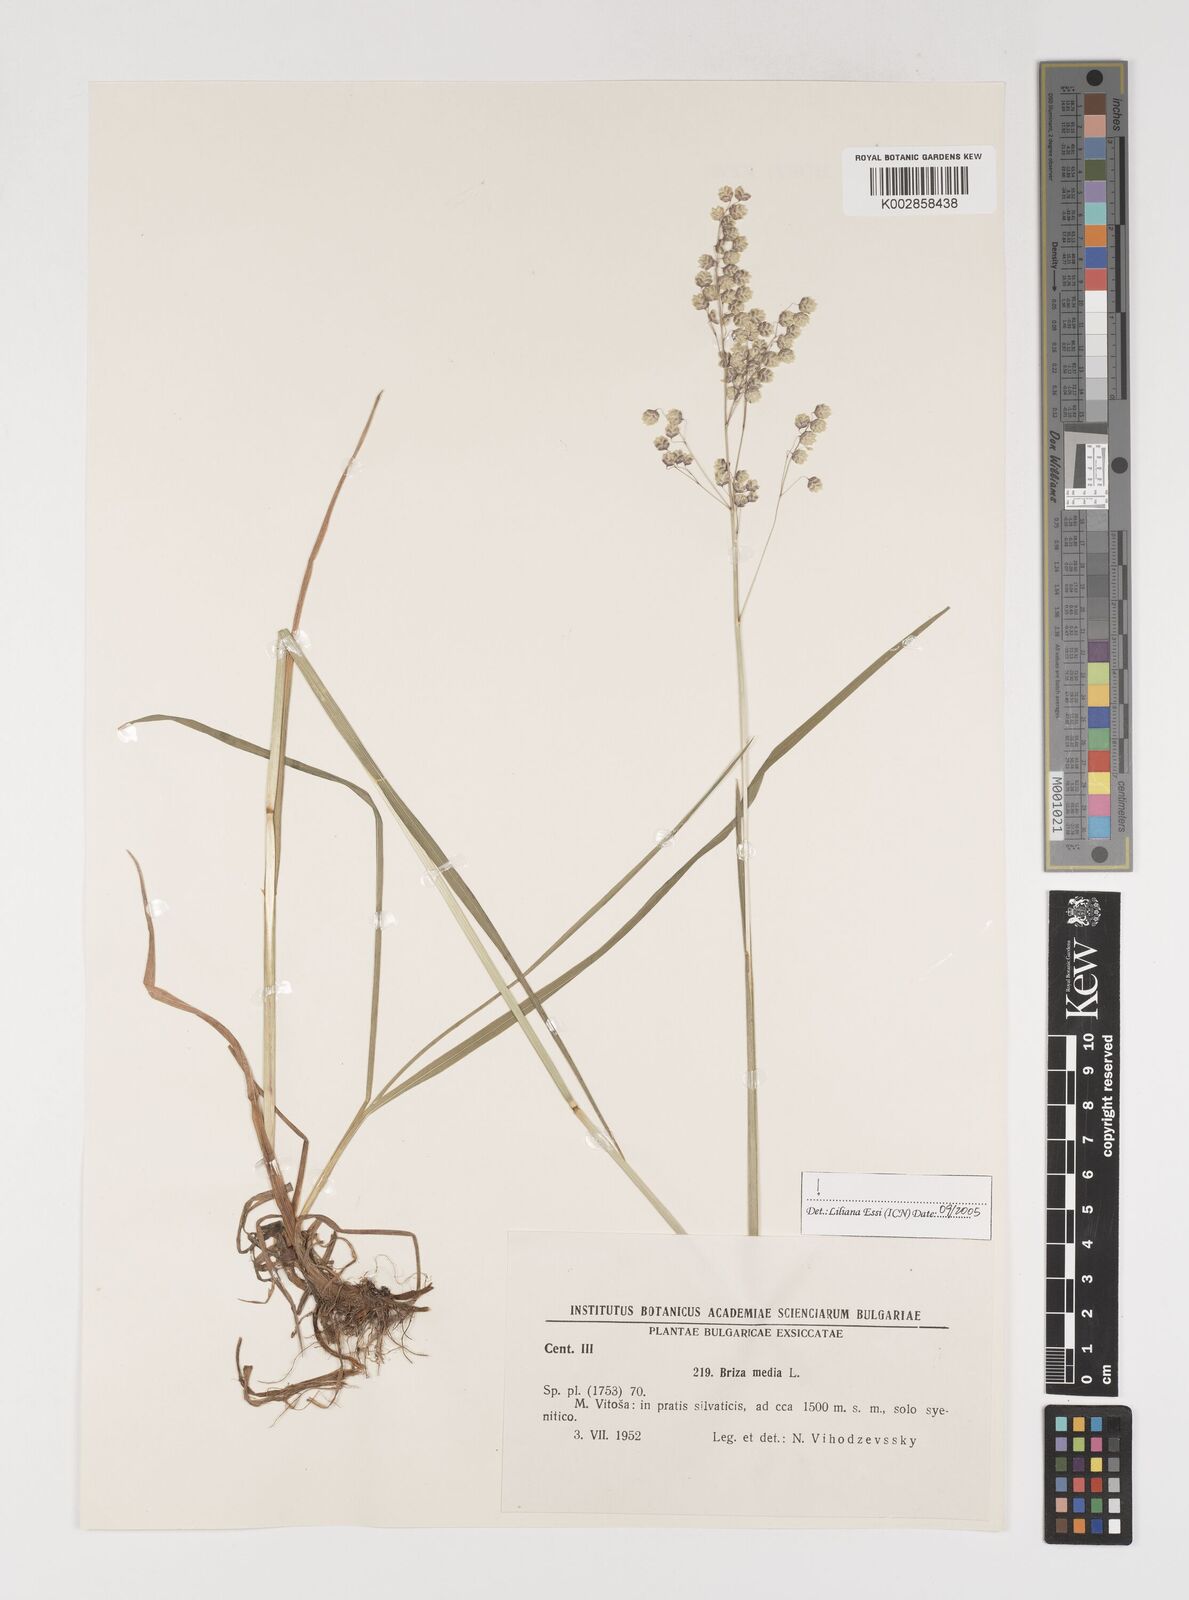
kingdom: Plantae
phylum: Tracheophyta
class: Liliopsida
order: Poales
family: Poaceae
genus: Briza
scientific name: Briza media
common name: Quaking grass
